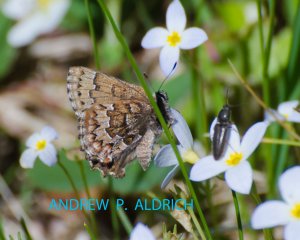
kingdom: Animalia
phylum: Arthropoda
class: Insecta
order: Lepidoptera
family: Lycaenidae
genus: Incisalia
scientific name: Incisalia niphon
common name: Eastern Pine Elfin
